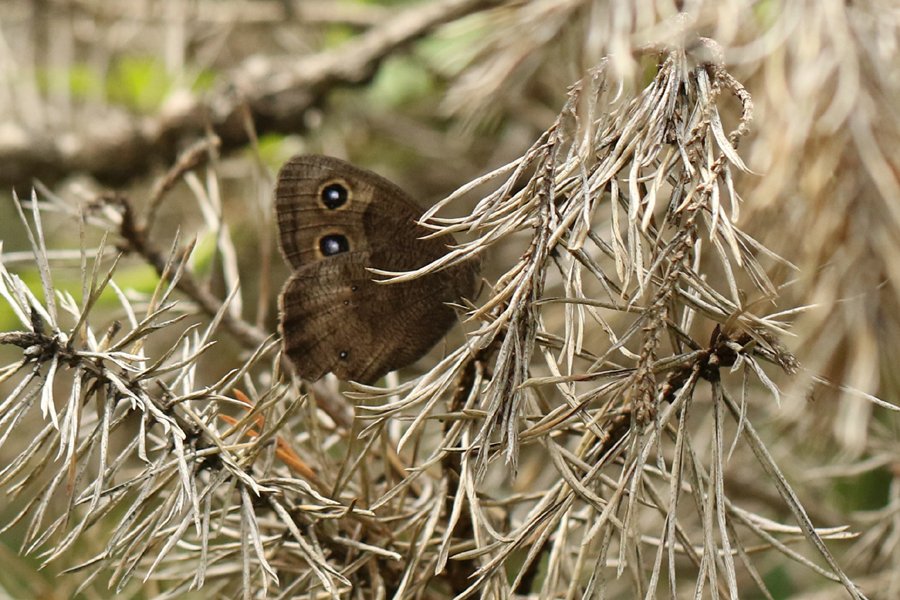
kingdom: Animalia
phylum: Arthropoda
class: Insecta
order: Lepidoptera
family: Nymphalidae
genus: Cercyonis
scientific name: Cercyonis pegala
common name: Common Wood-Nymph
